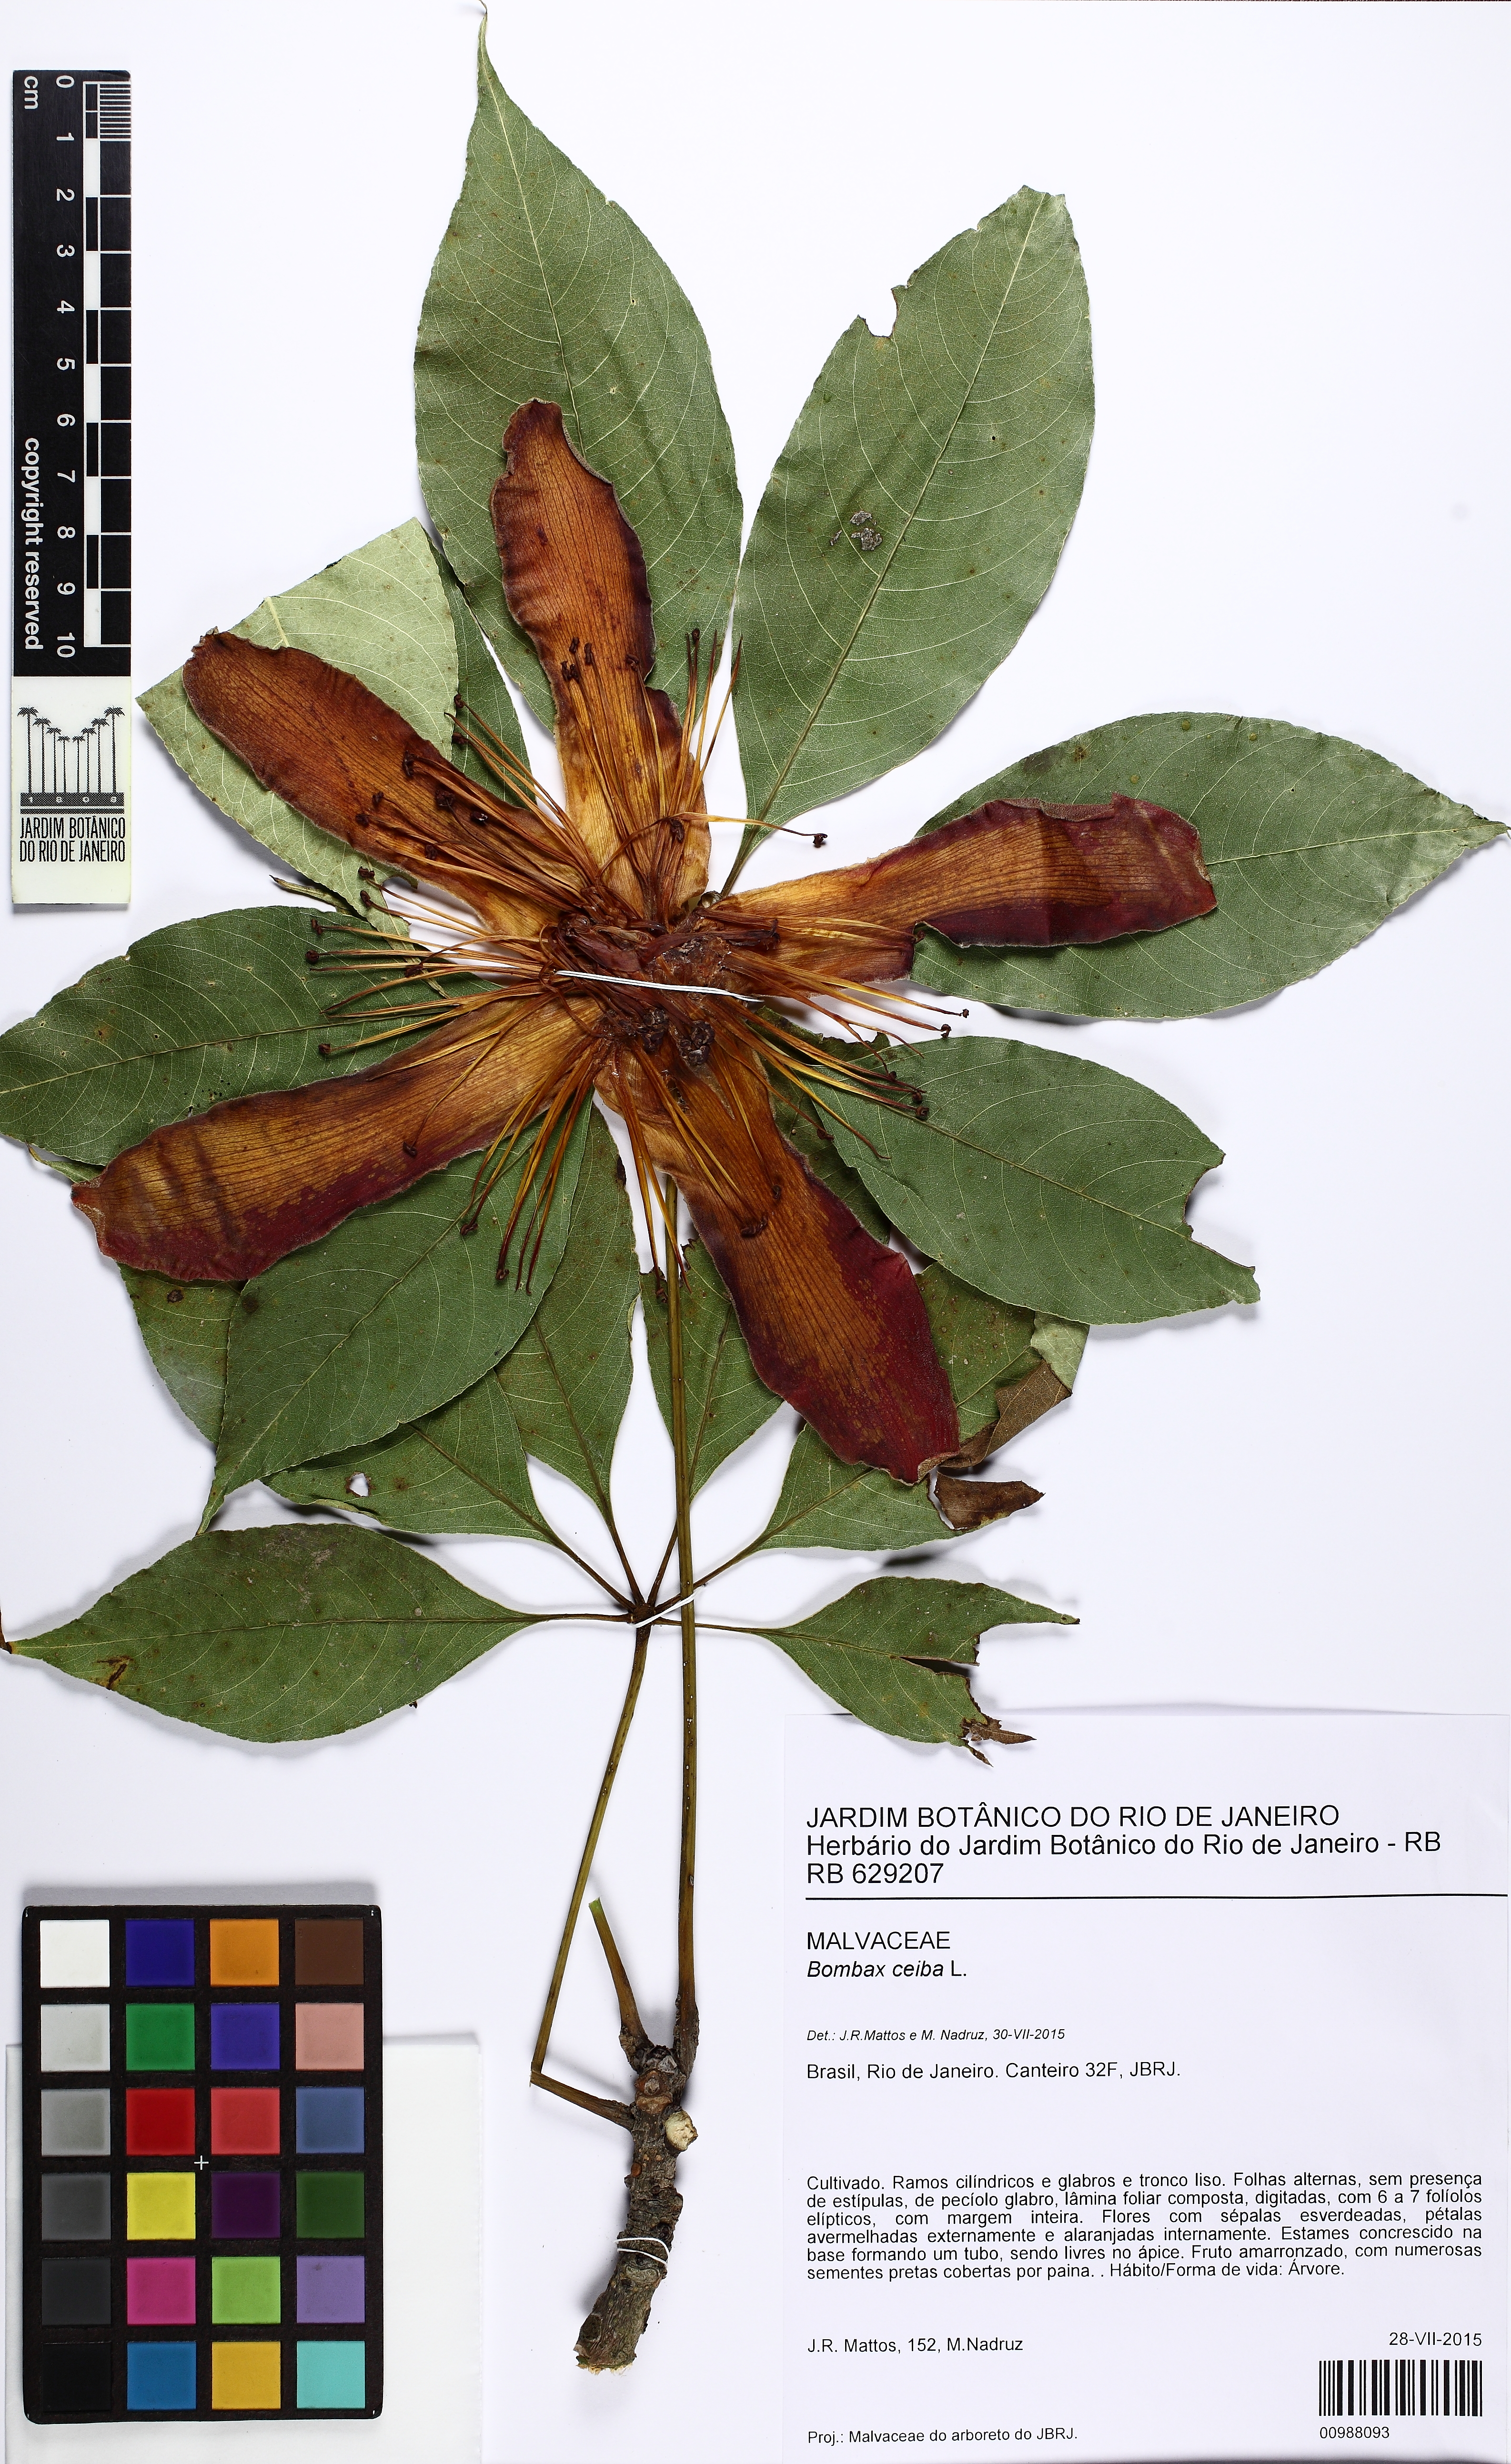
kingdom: Plantae
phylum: Tracheophyta
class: Magnoliopsida
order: Malvales
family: Malvaceae
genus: Bombax
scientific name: Bombax ceiba
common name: Northern-cottonwood
